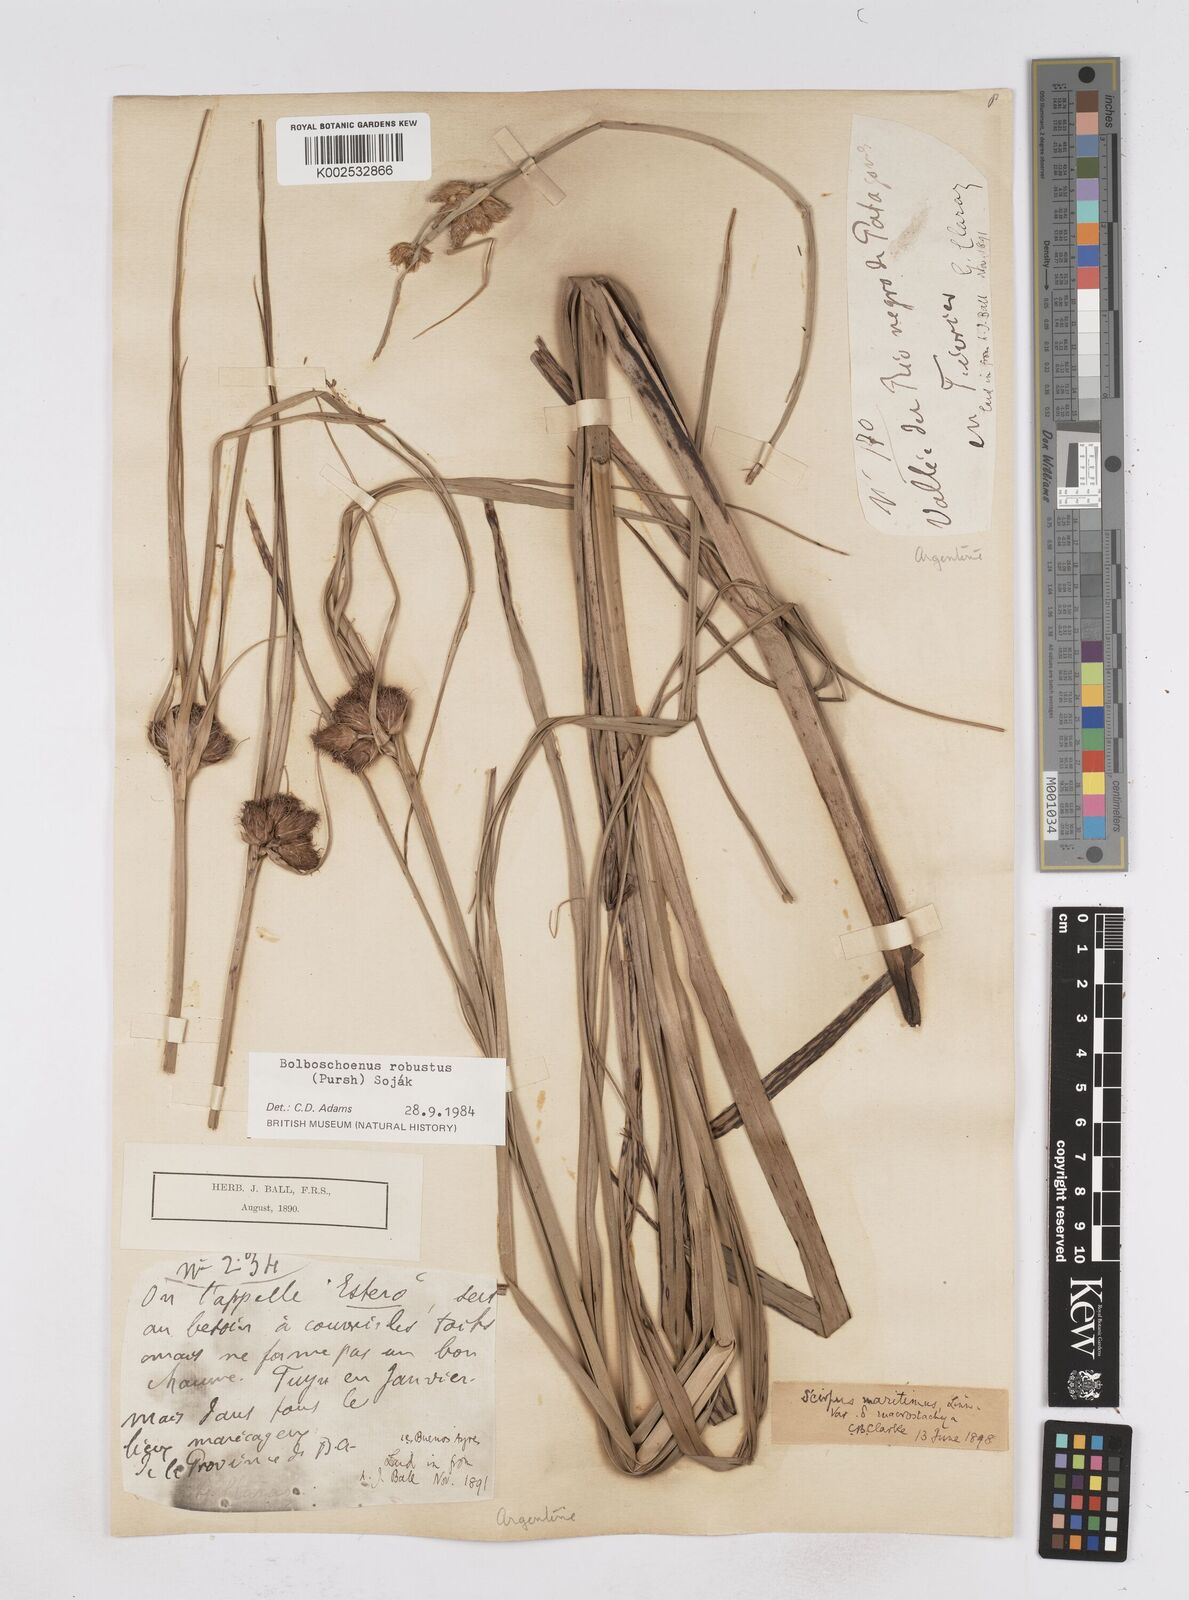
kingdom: Plantae
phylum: Tracheophyta
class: Liliopsida
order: Poales
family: Cyperaceae
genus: Bolboschoenus
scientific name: Bolboschoenus robustus
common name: Seacoast bulrush
